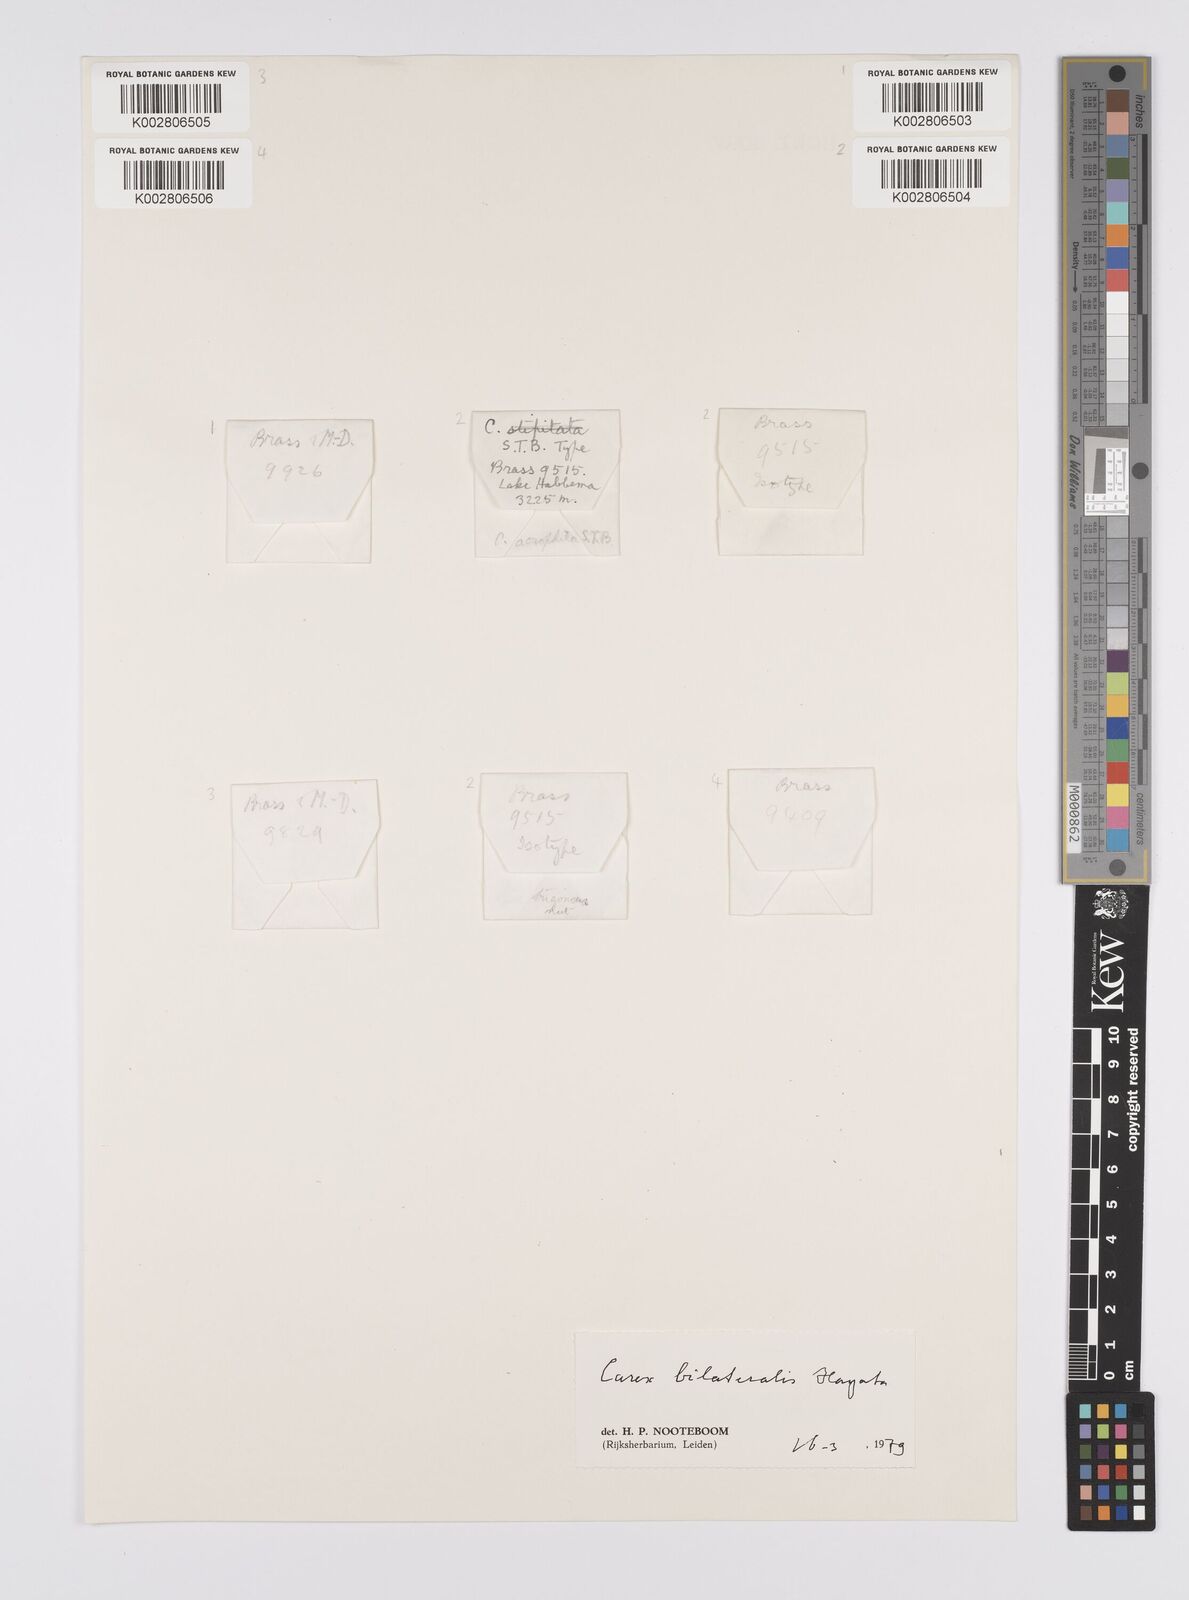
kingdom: Plantae
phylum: Tracheophyta
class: Liliopsida
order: Poales
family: Cyperaceae
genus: Carex
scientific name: Carex bilateralis
